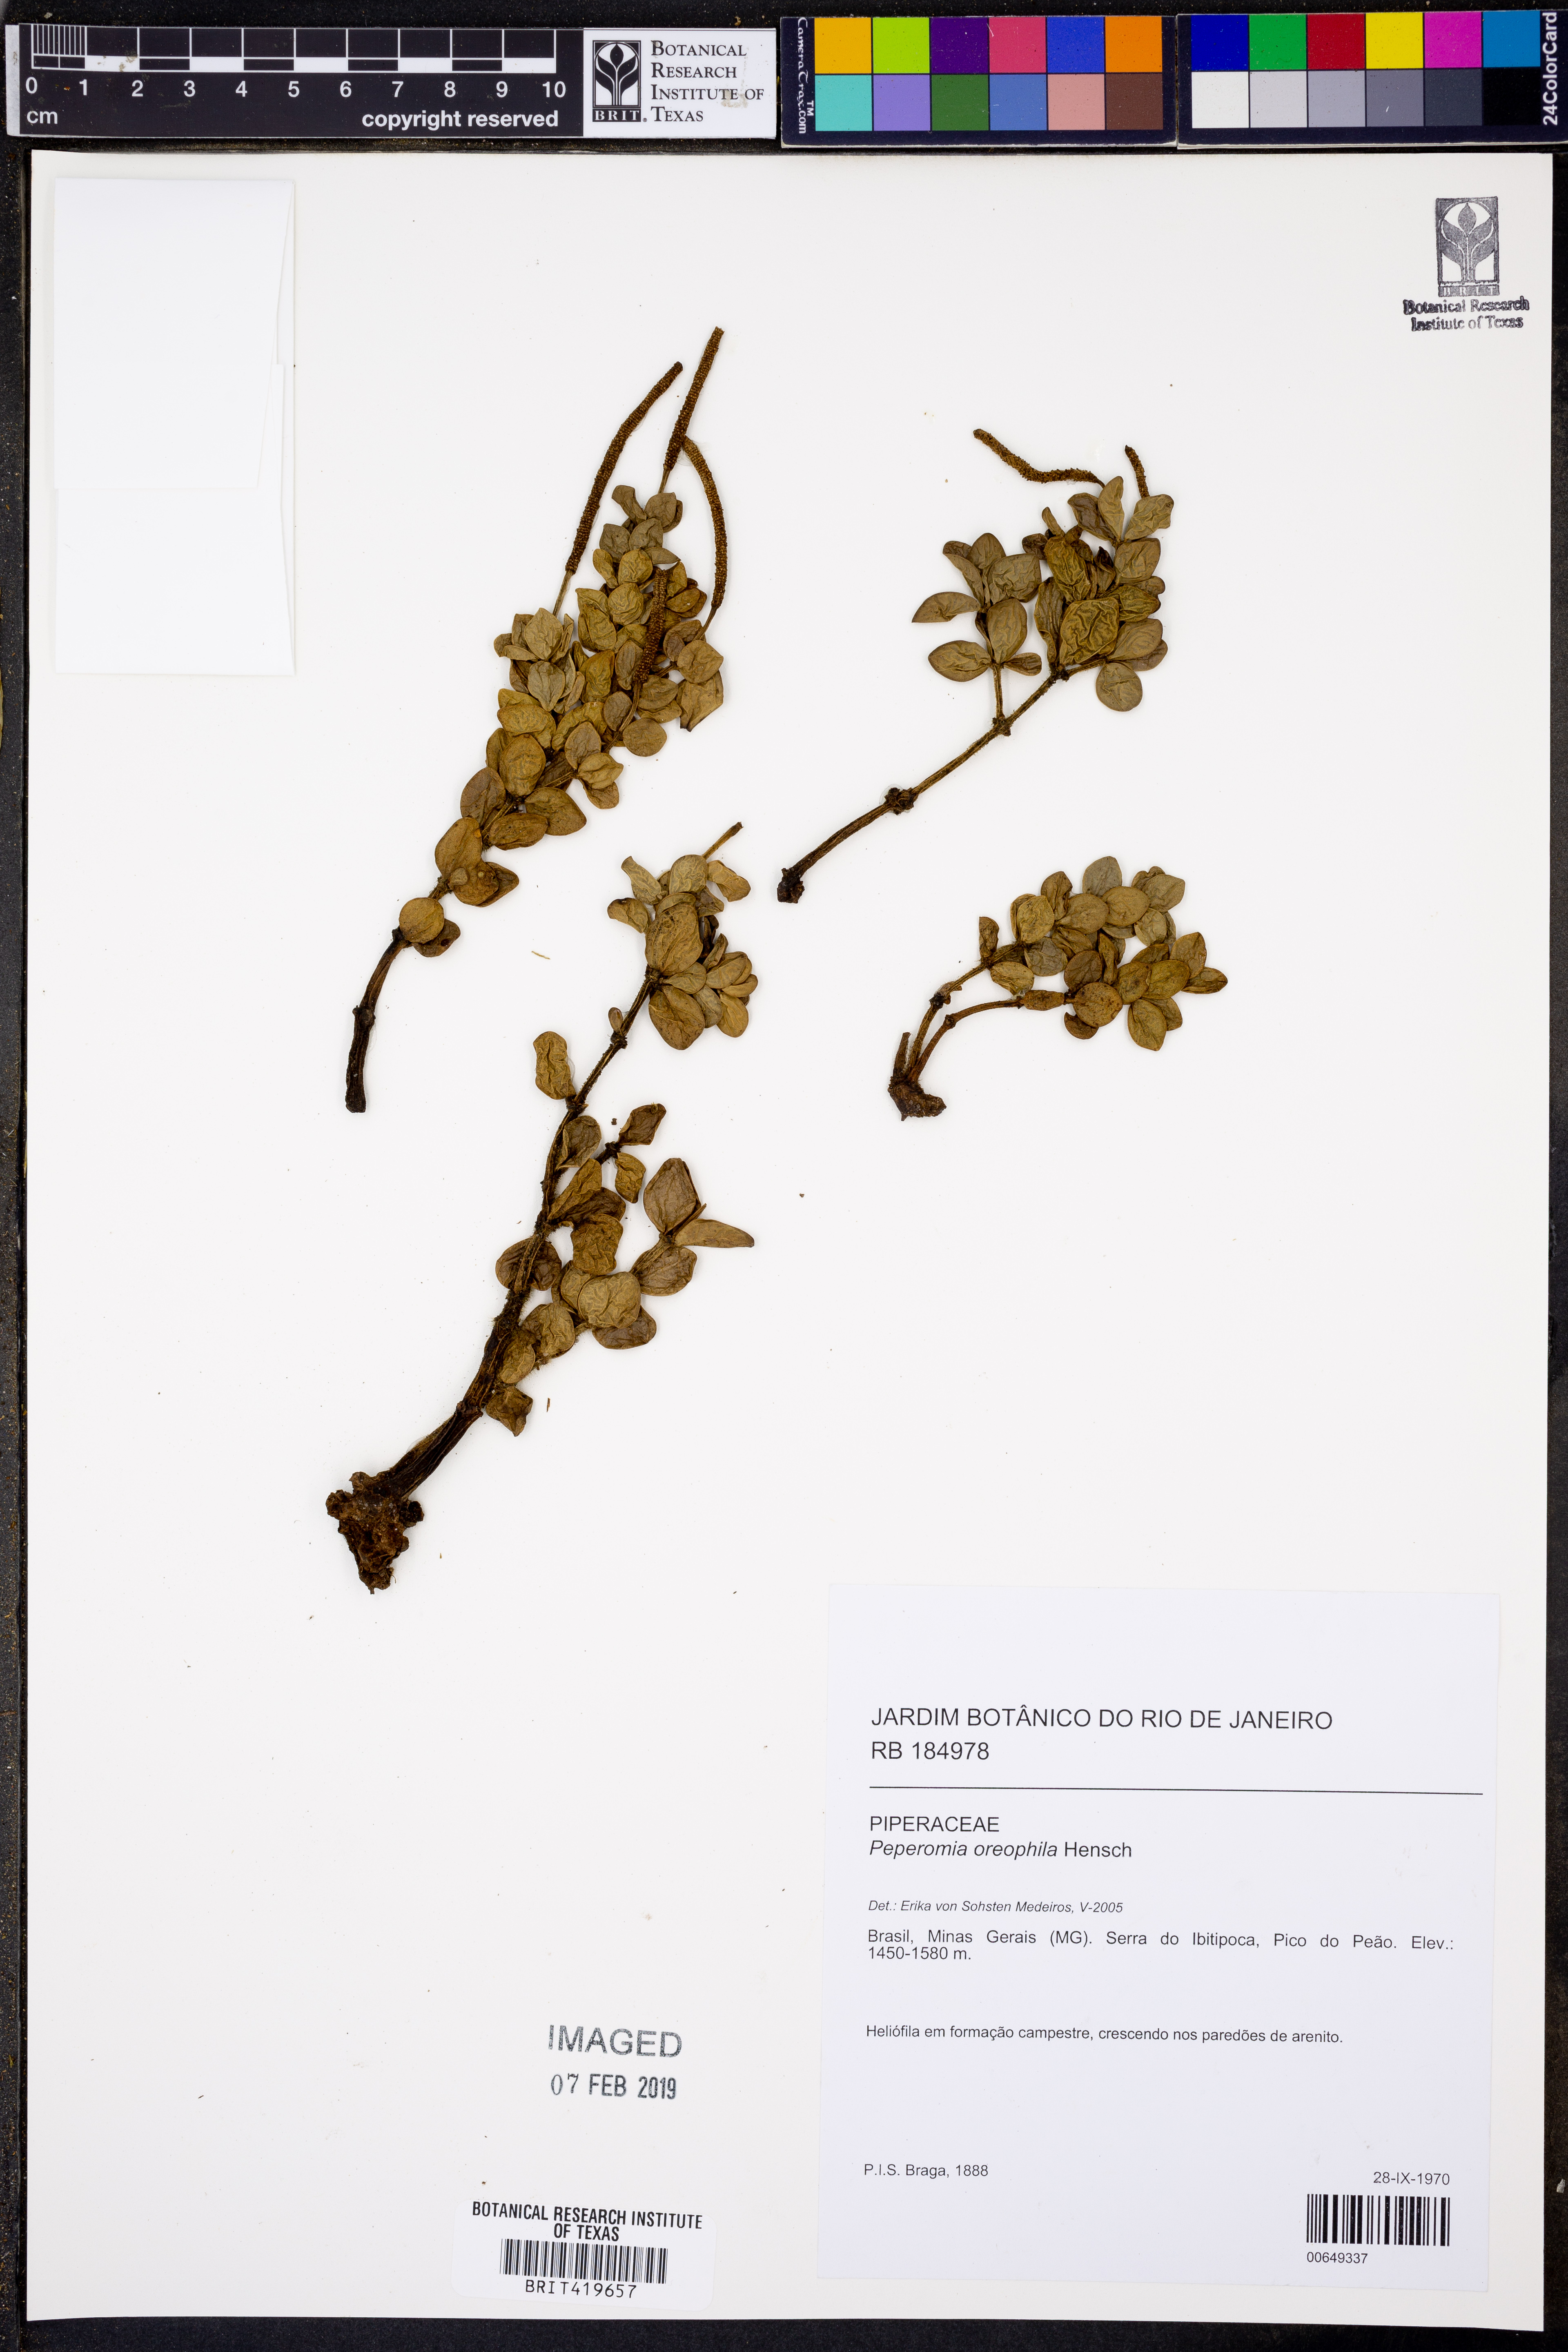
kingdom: Plantae
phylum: Tracheophyta
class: Magnoliopsida
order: Piperales
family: Piperaceae
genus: Peperomia
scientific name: Peperomia oreophila
